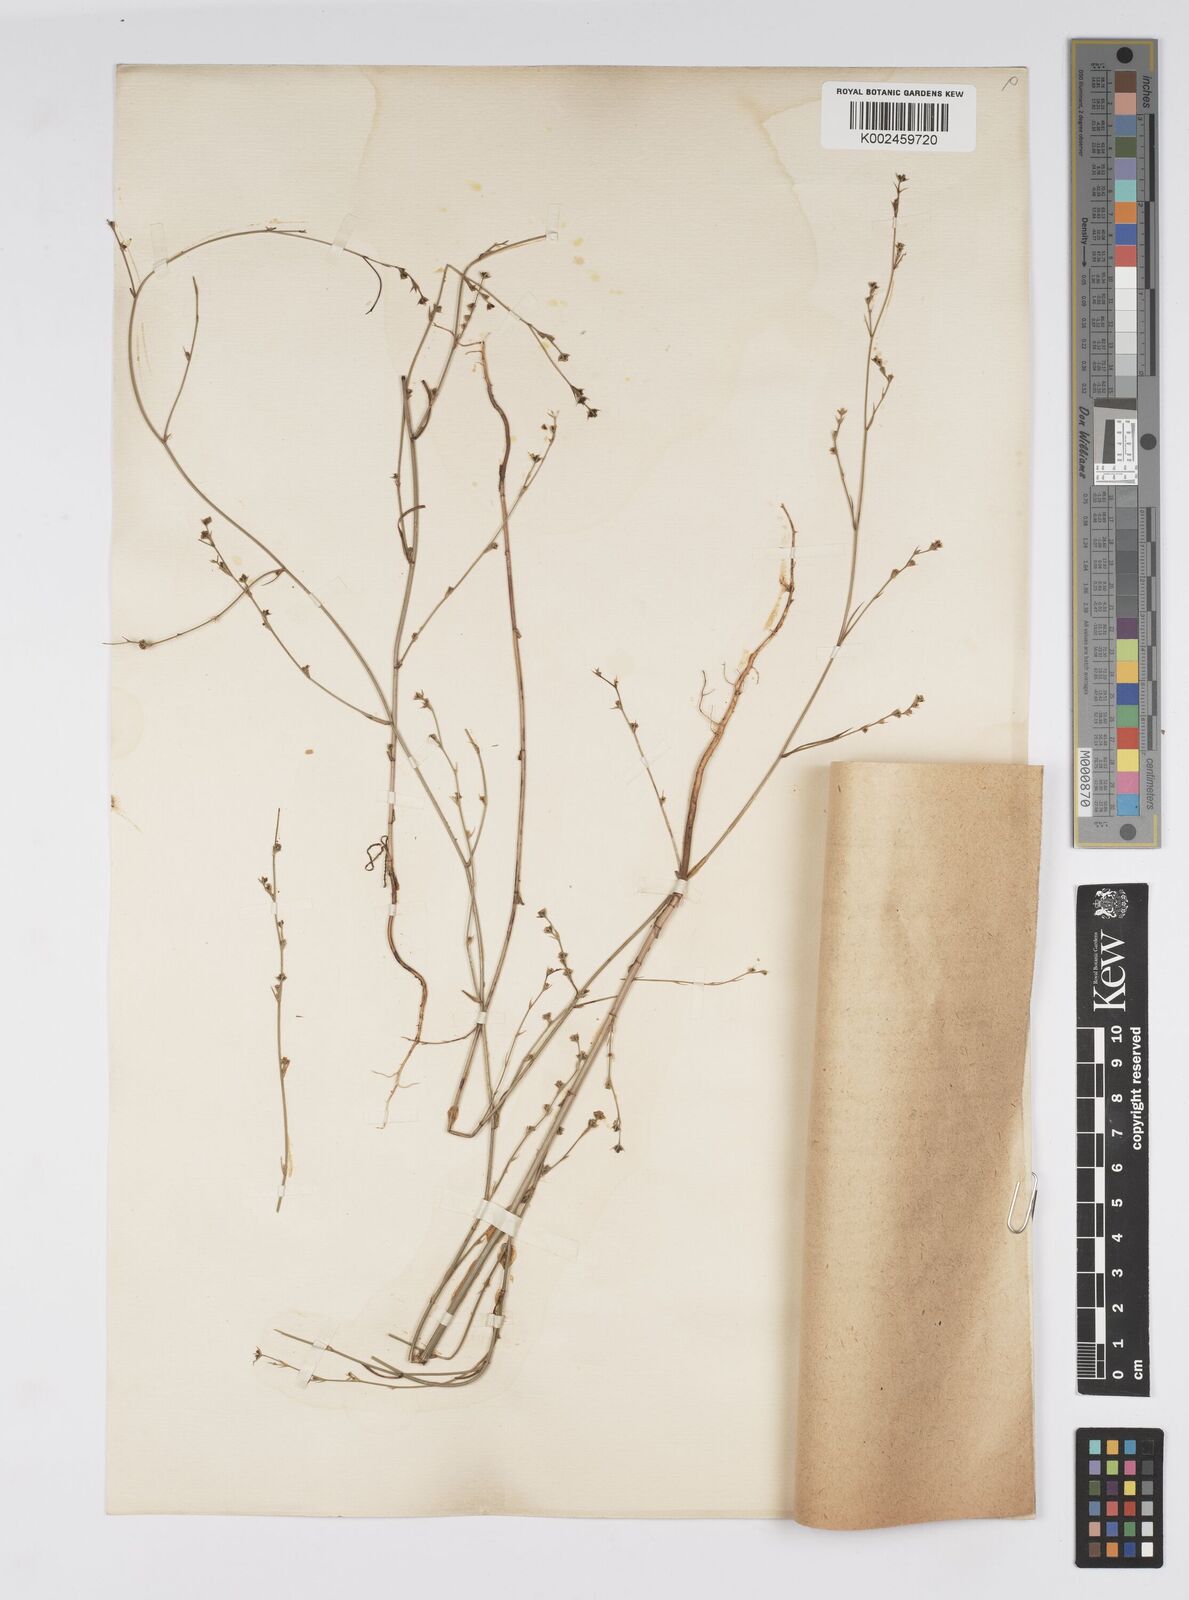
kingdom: Plantae
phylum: Tracheophyta
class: Magnoliopsida
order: Apiales
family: Apiaceae
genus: Bupleurum
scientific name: Bupleurum asperuloides
